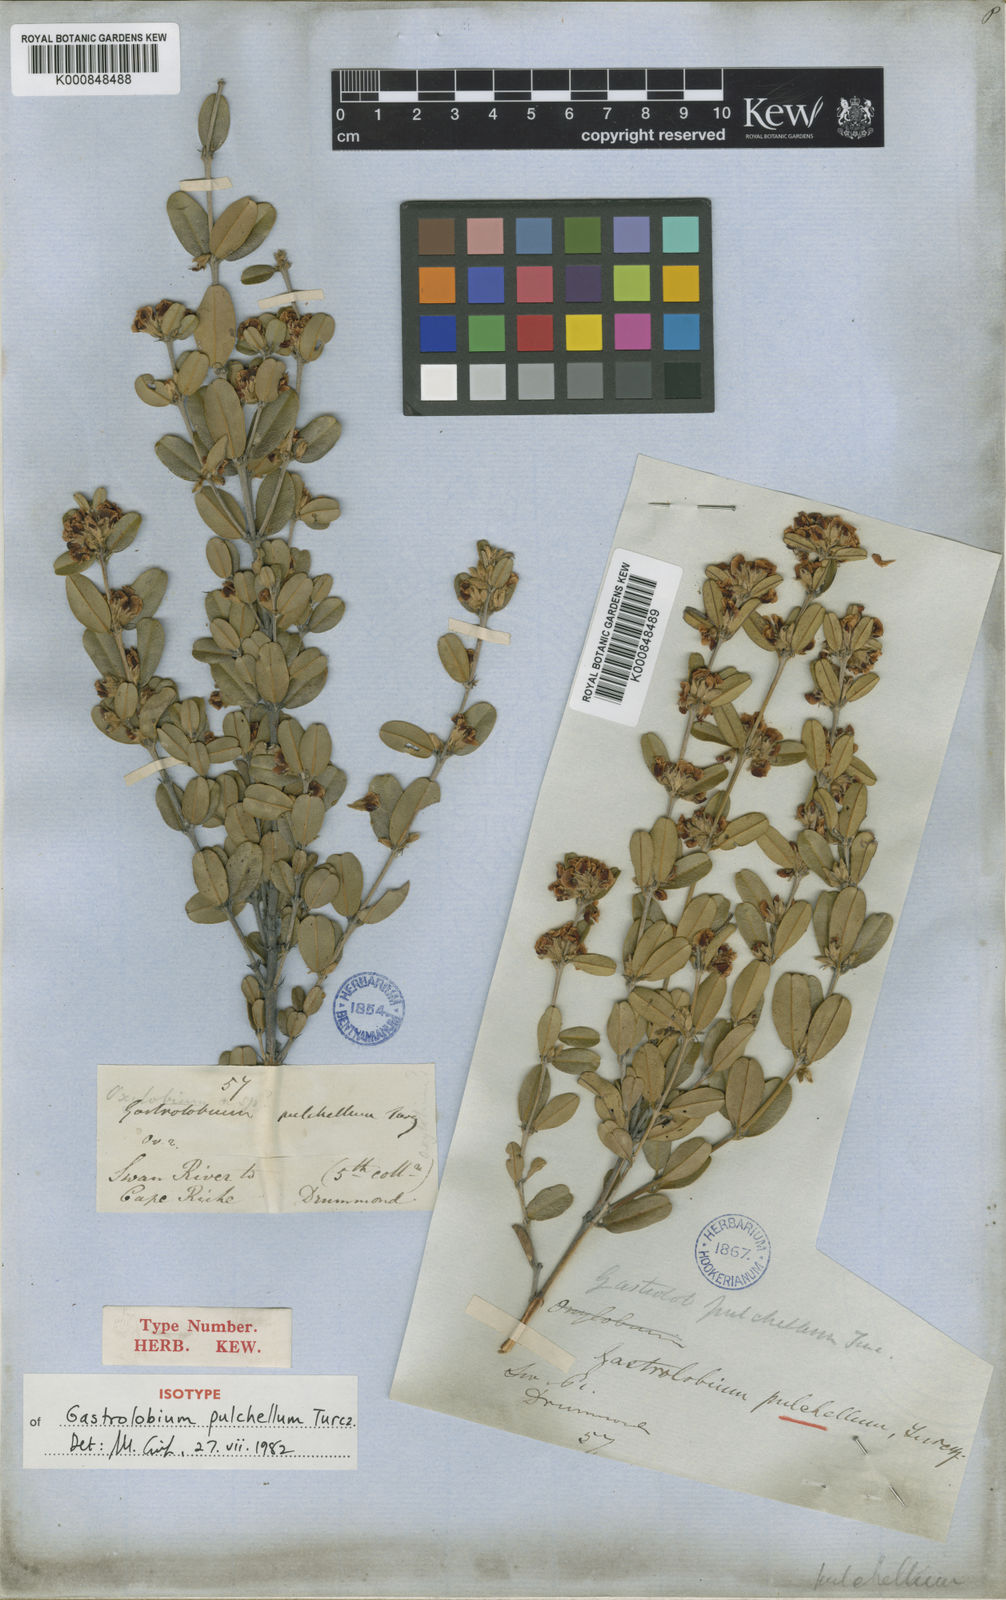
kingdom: Plantae
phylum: Tracheophyta
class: Magnoliopsida
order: Fabales
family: Fabaceae
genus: Gastrolobium
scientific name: Gastrolobium pulchellum
